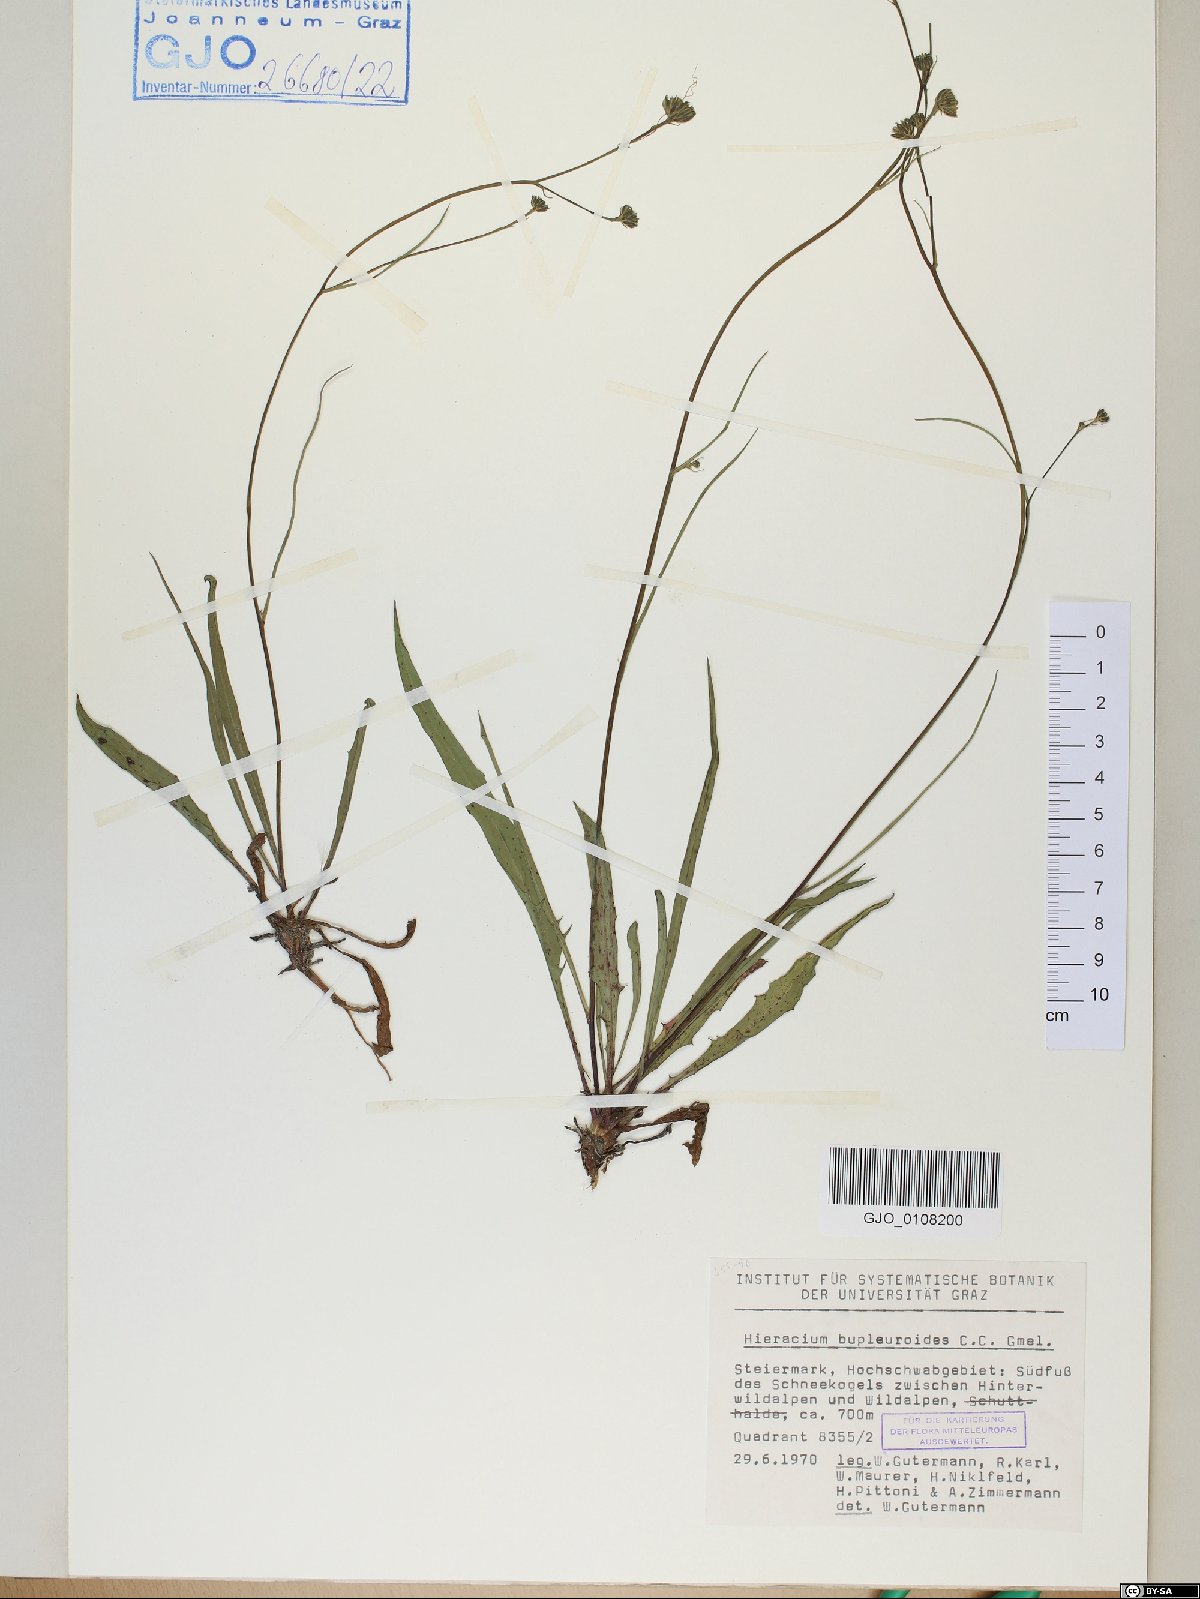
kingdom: Plantae
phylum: Tracheophyta
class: Magnoliopsida
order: Asterales
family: Asteraceae
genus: Hieracium
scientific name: Hieracium bupleuroides
